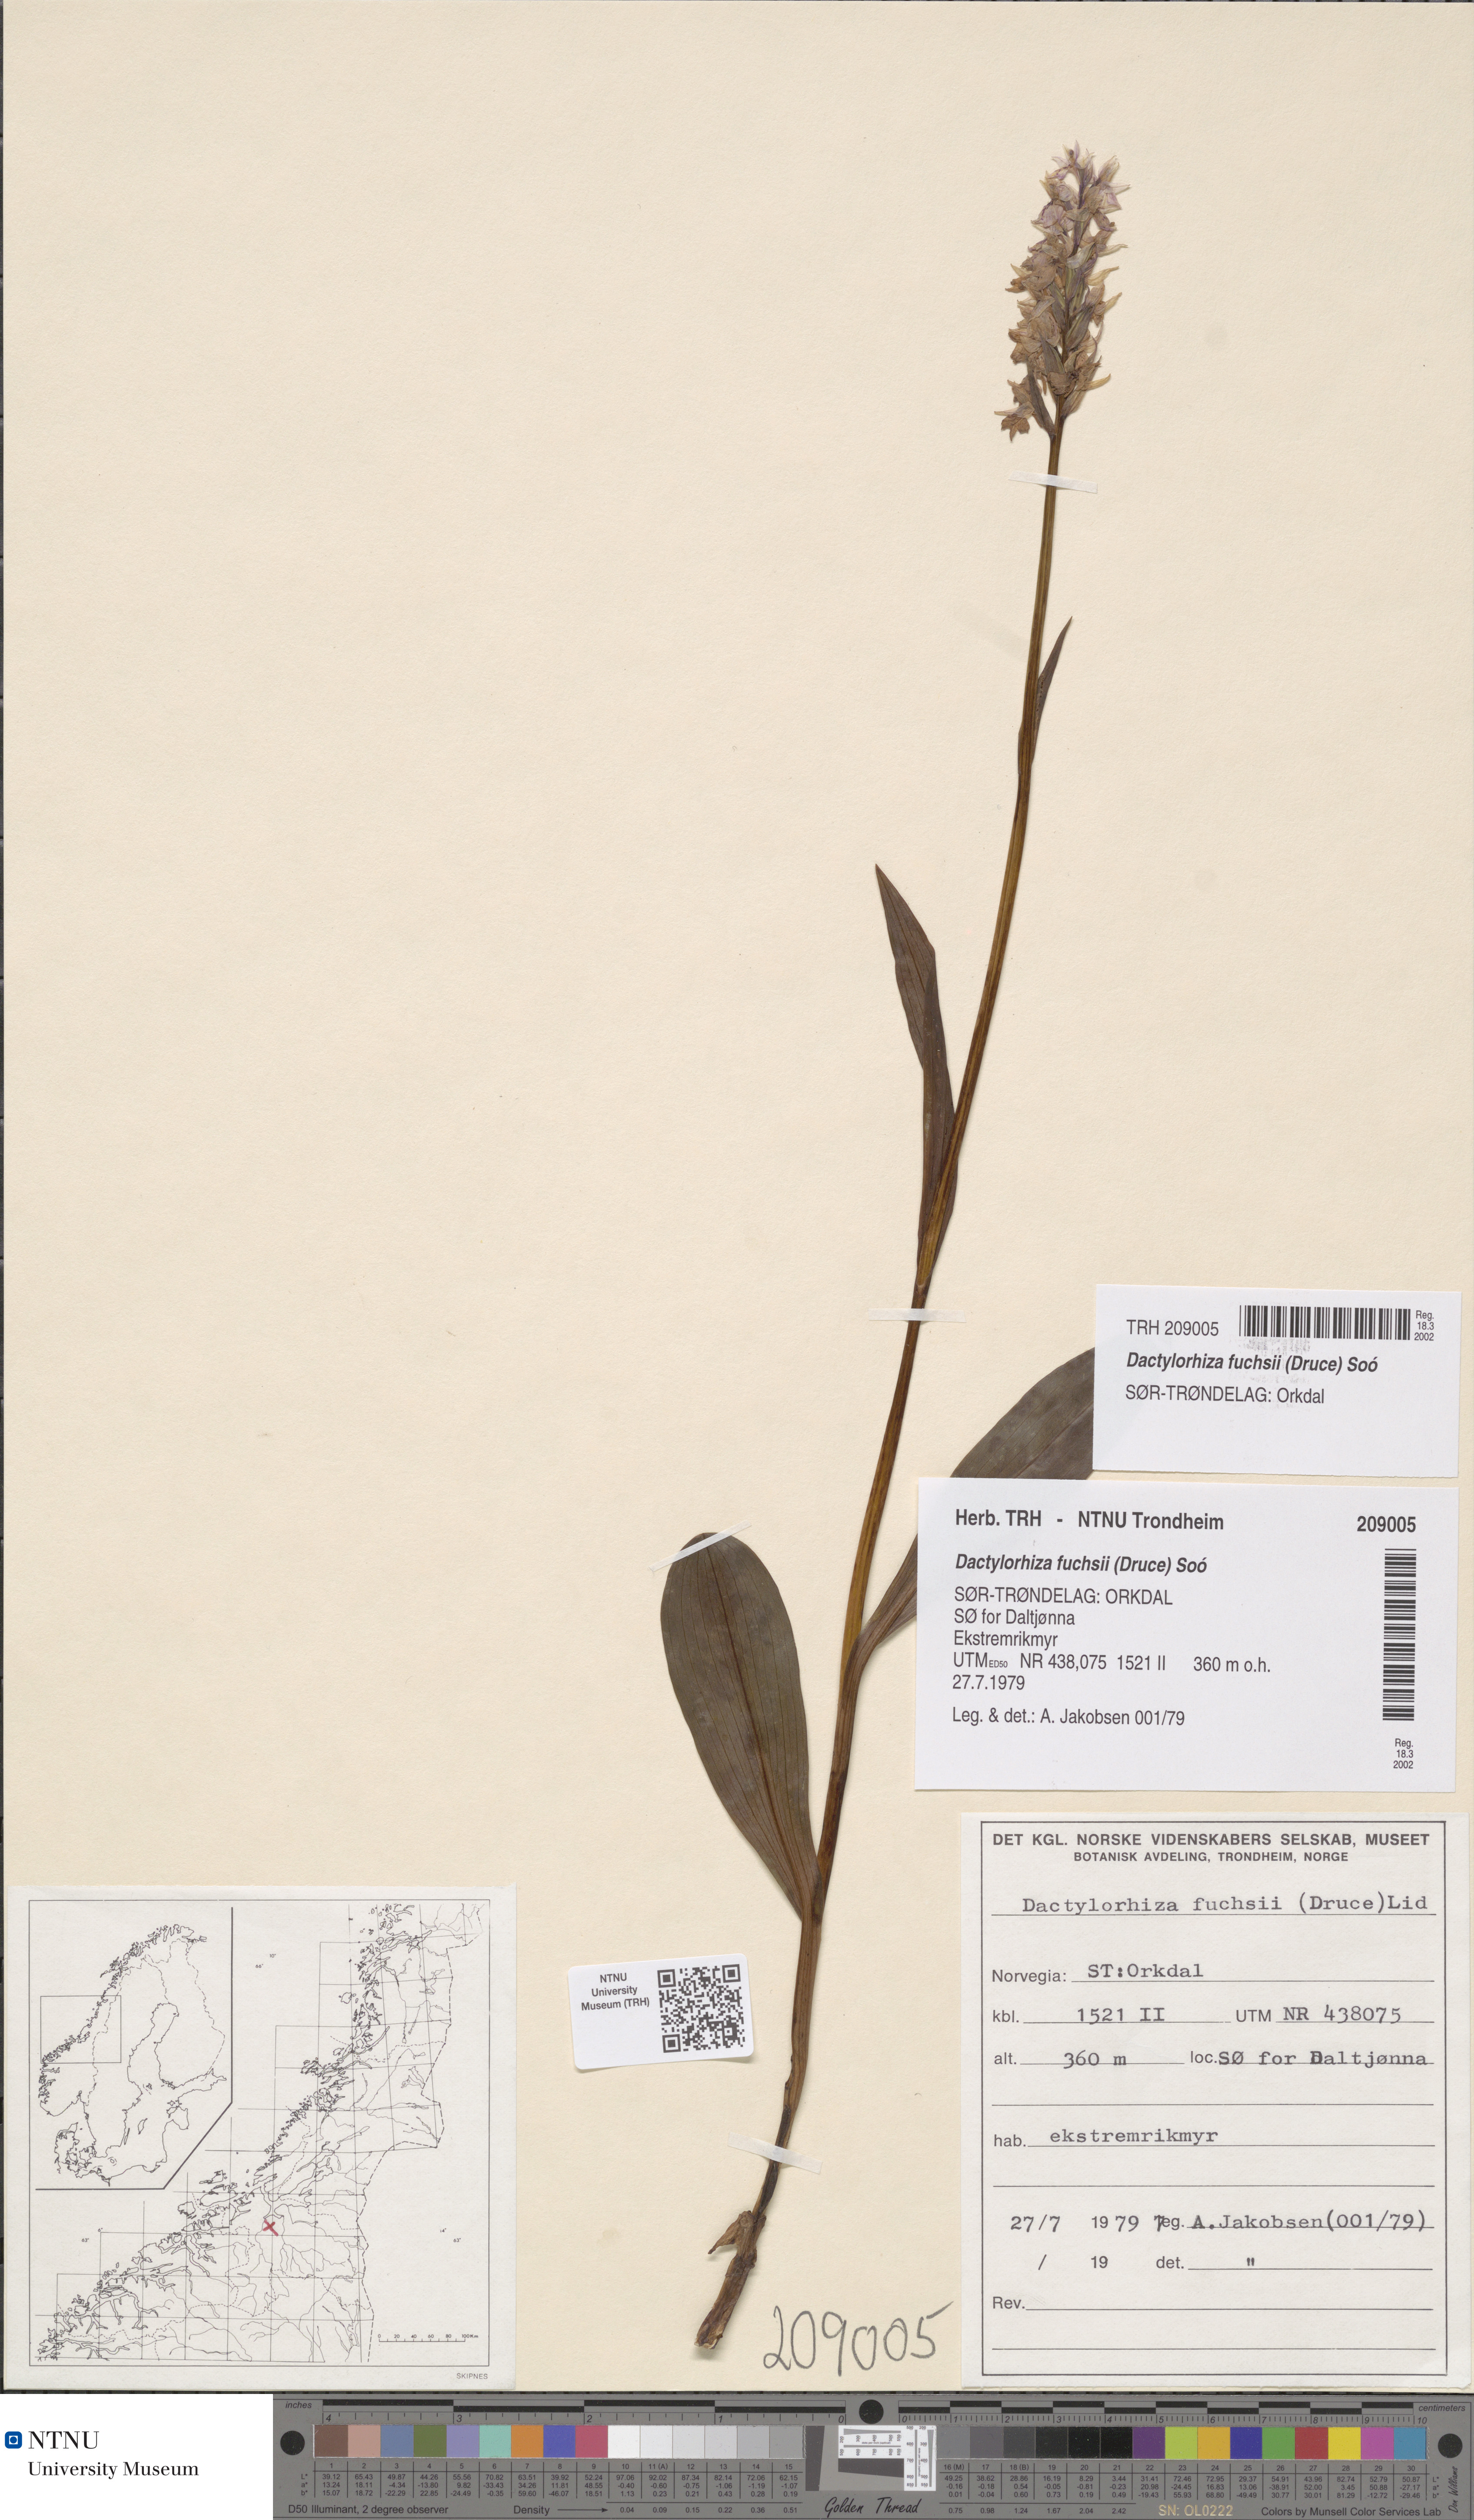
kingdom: Plantae
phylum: Tracheophyta
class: Liliopsida
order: Asparagales
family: Orchidaceae
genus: Dactylorhiza
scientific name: Dactylorhiza maculata
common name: Heath spotted-orchid
